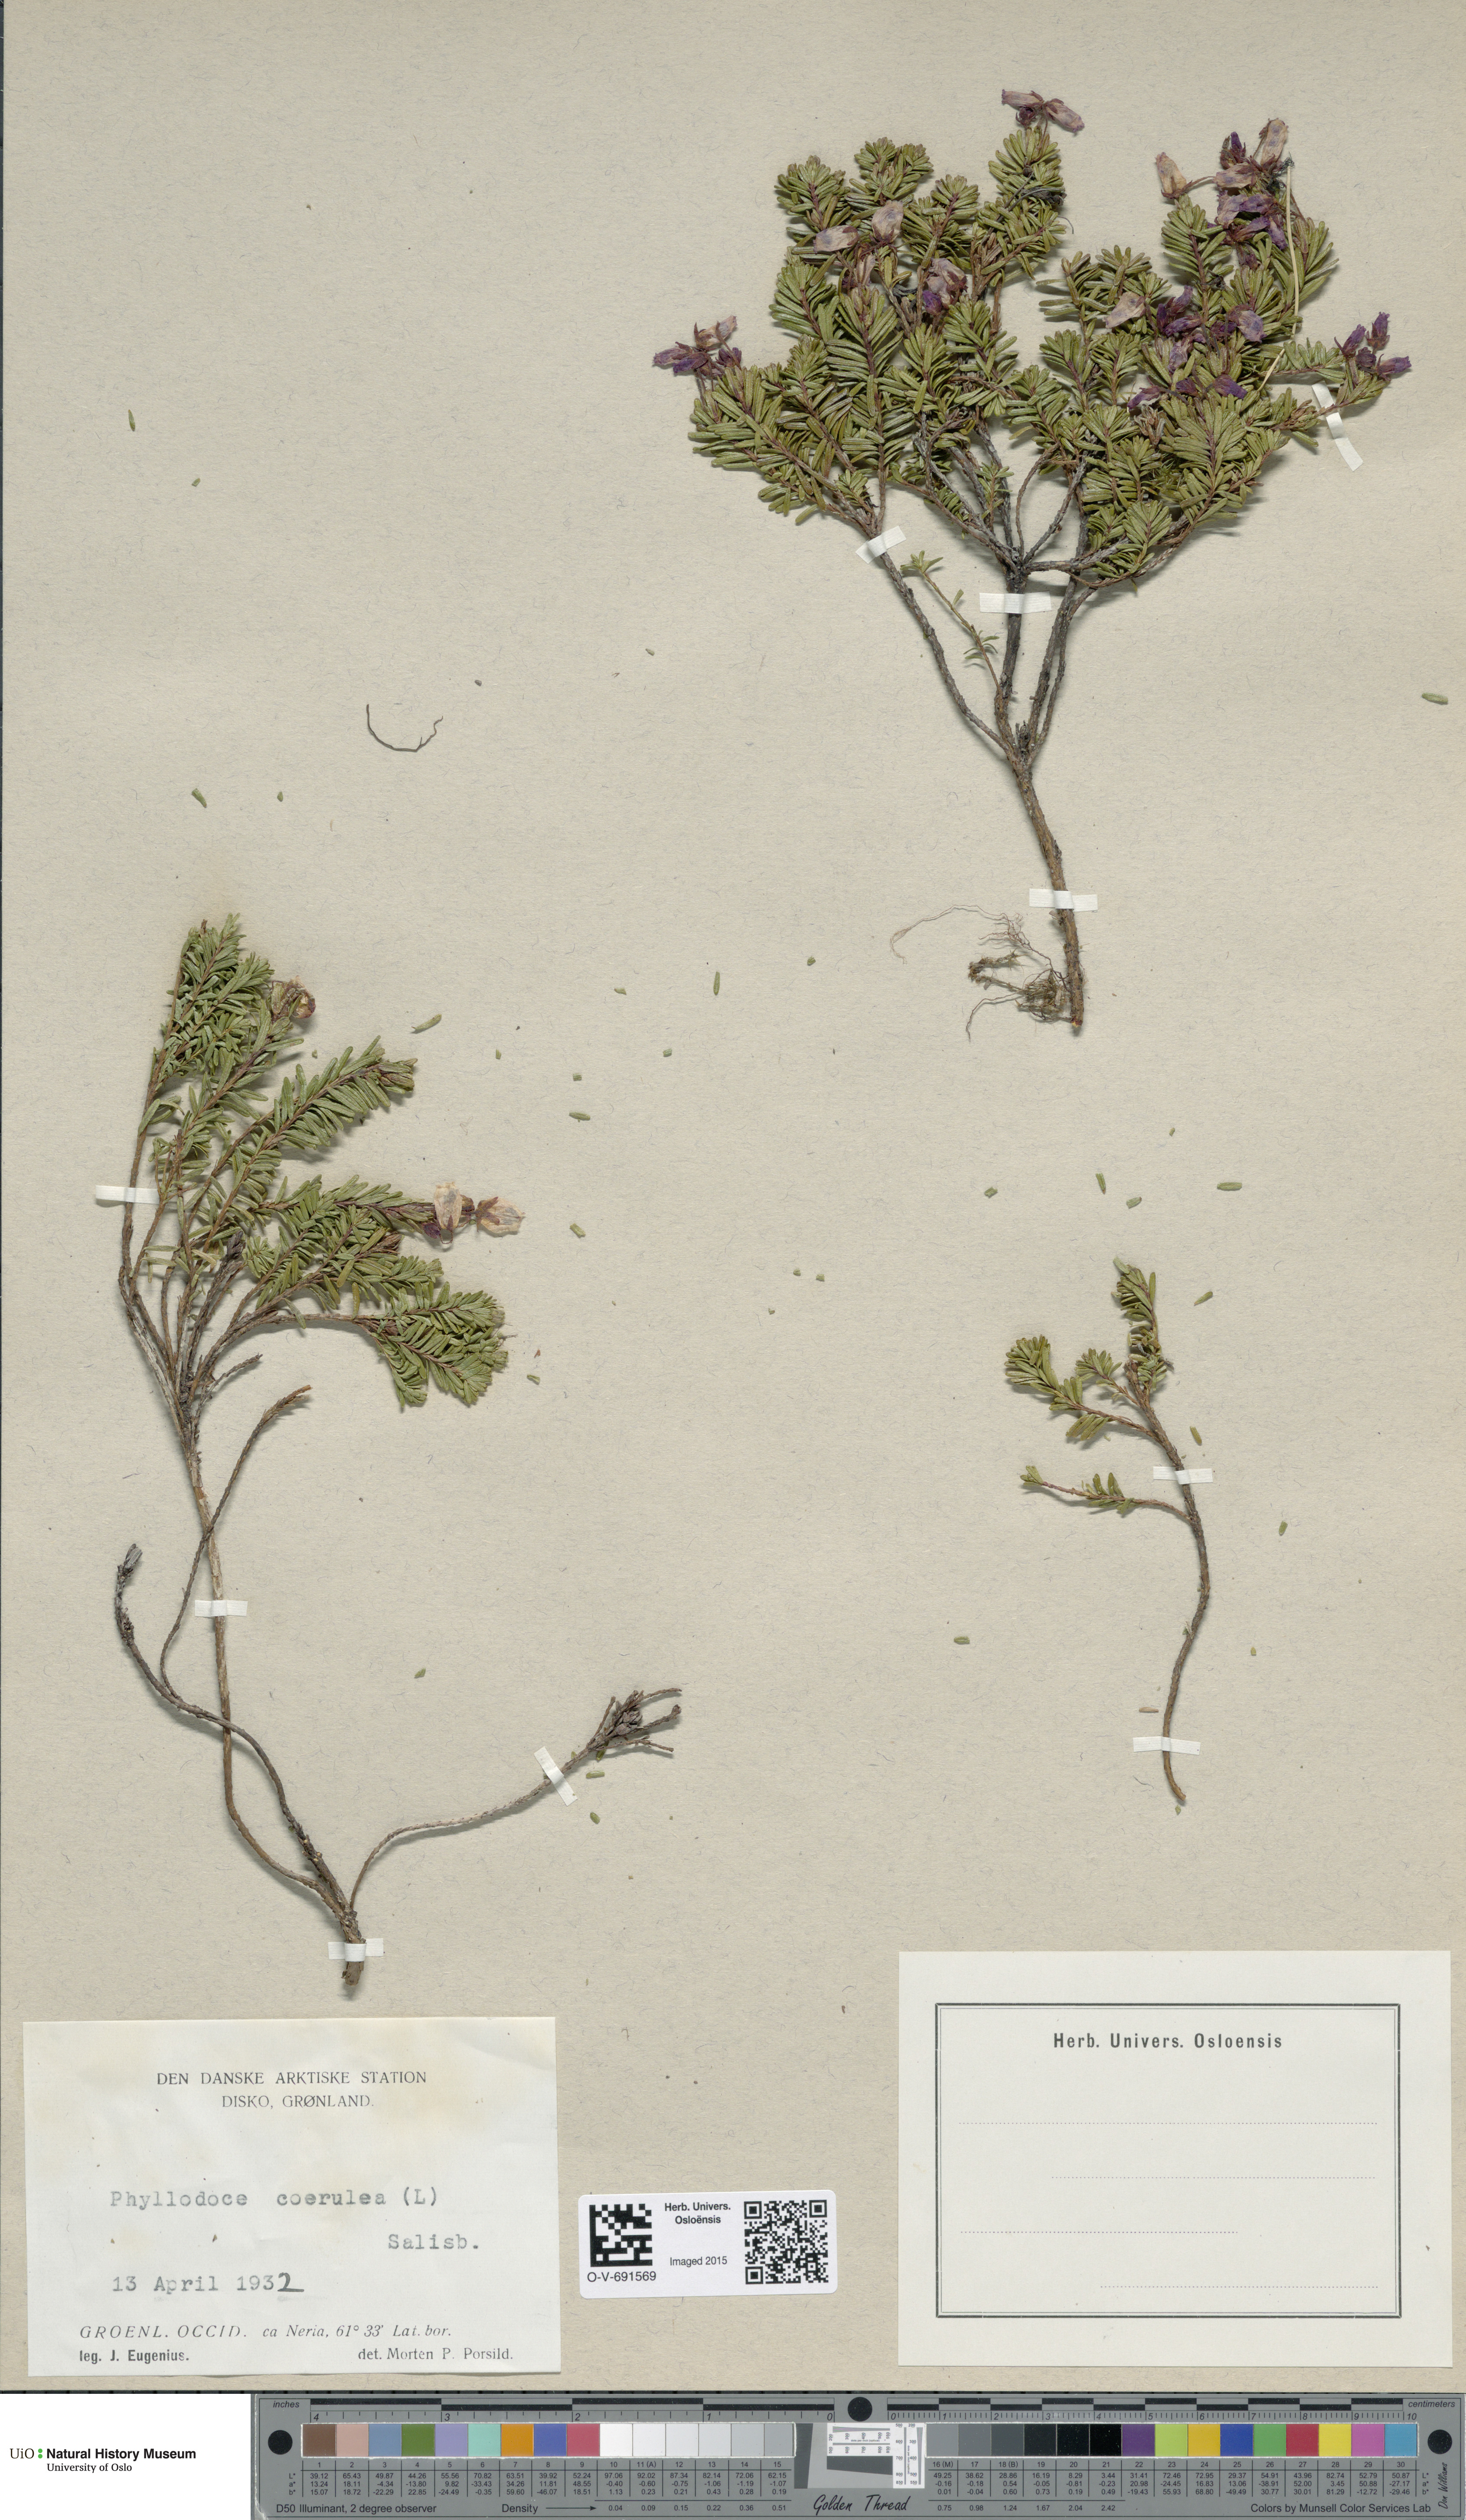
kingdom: Plantae
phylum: Tracheophyta
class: Magnoliopsida
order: Ericales
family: Ericaceae
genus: Phyllodoce
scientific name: Phyllodoce caerulea
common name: Blue heath
